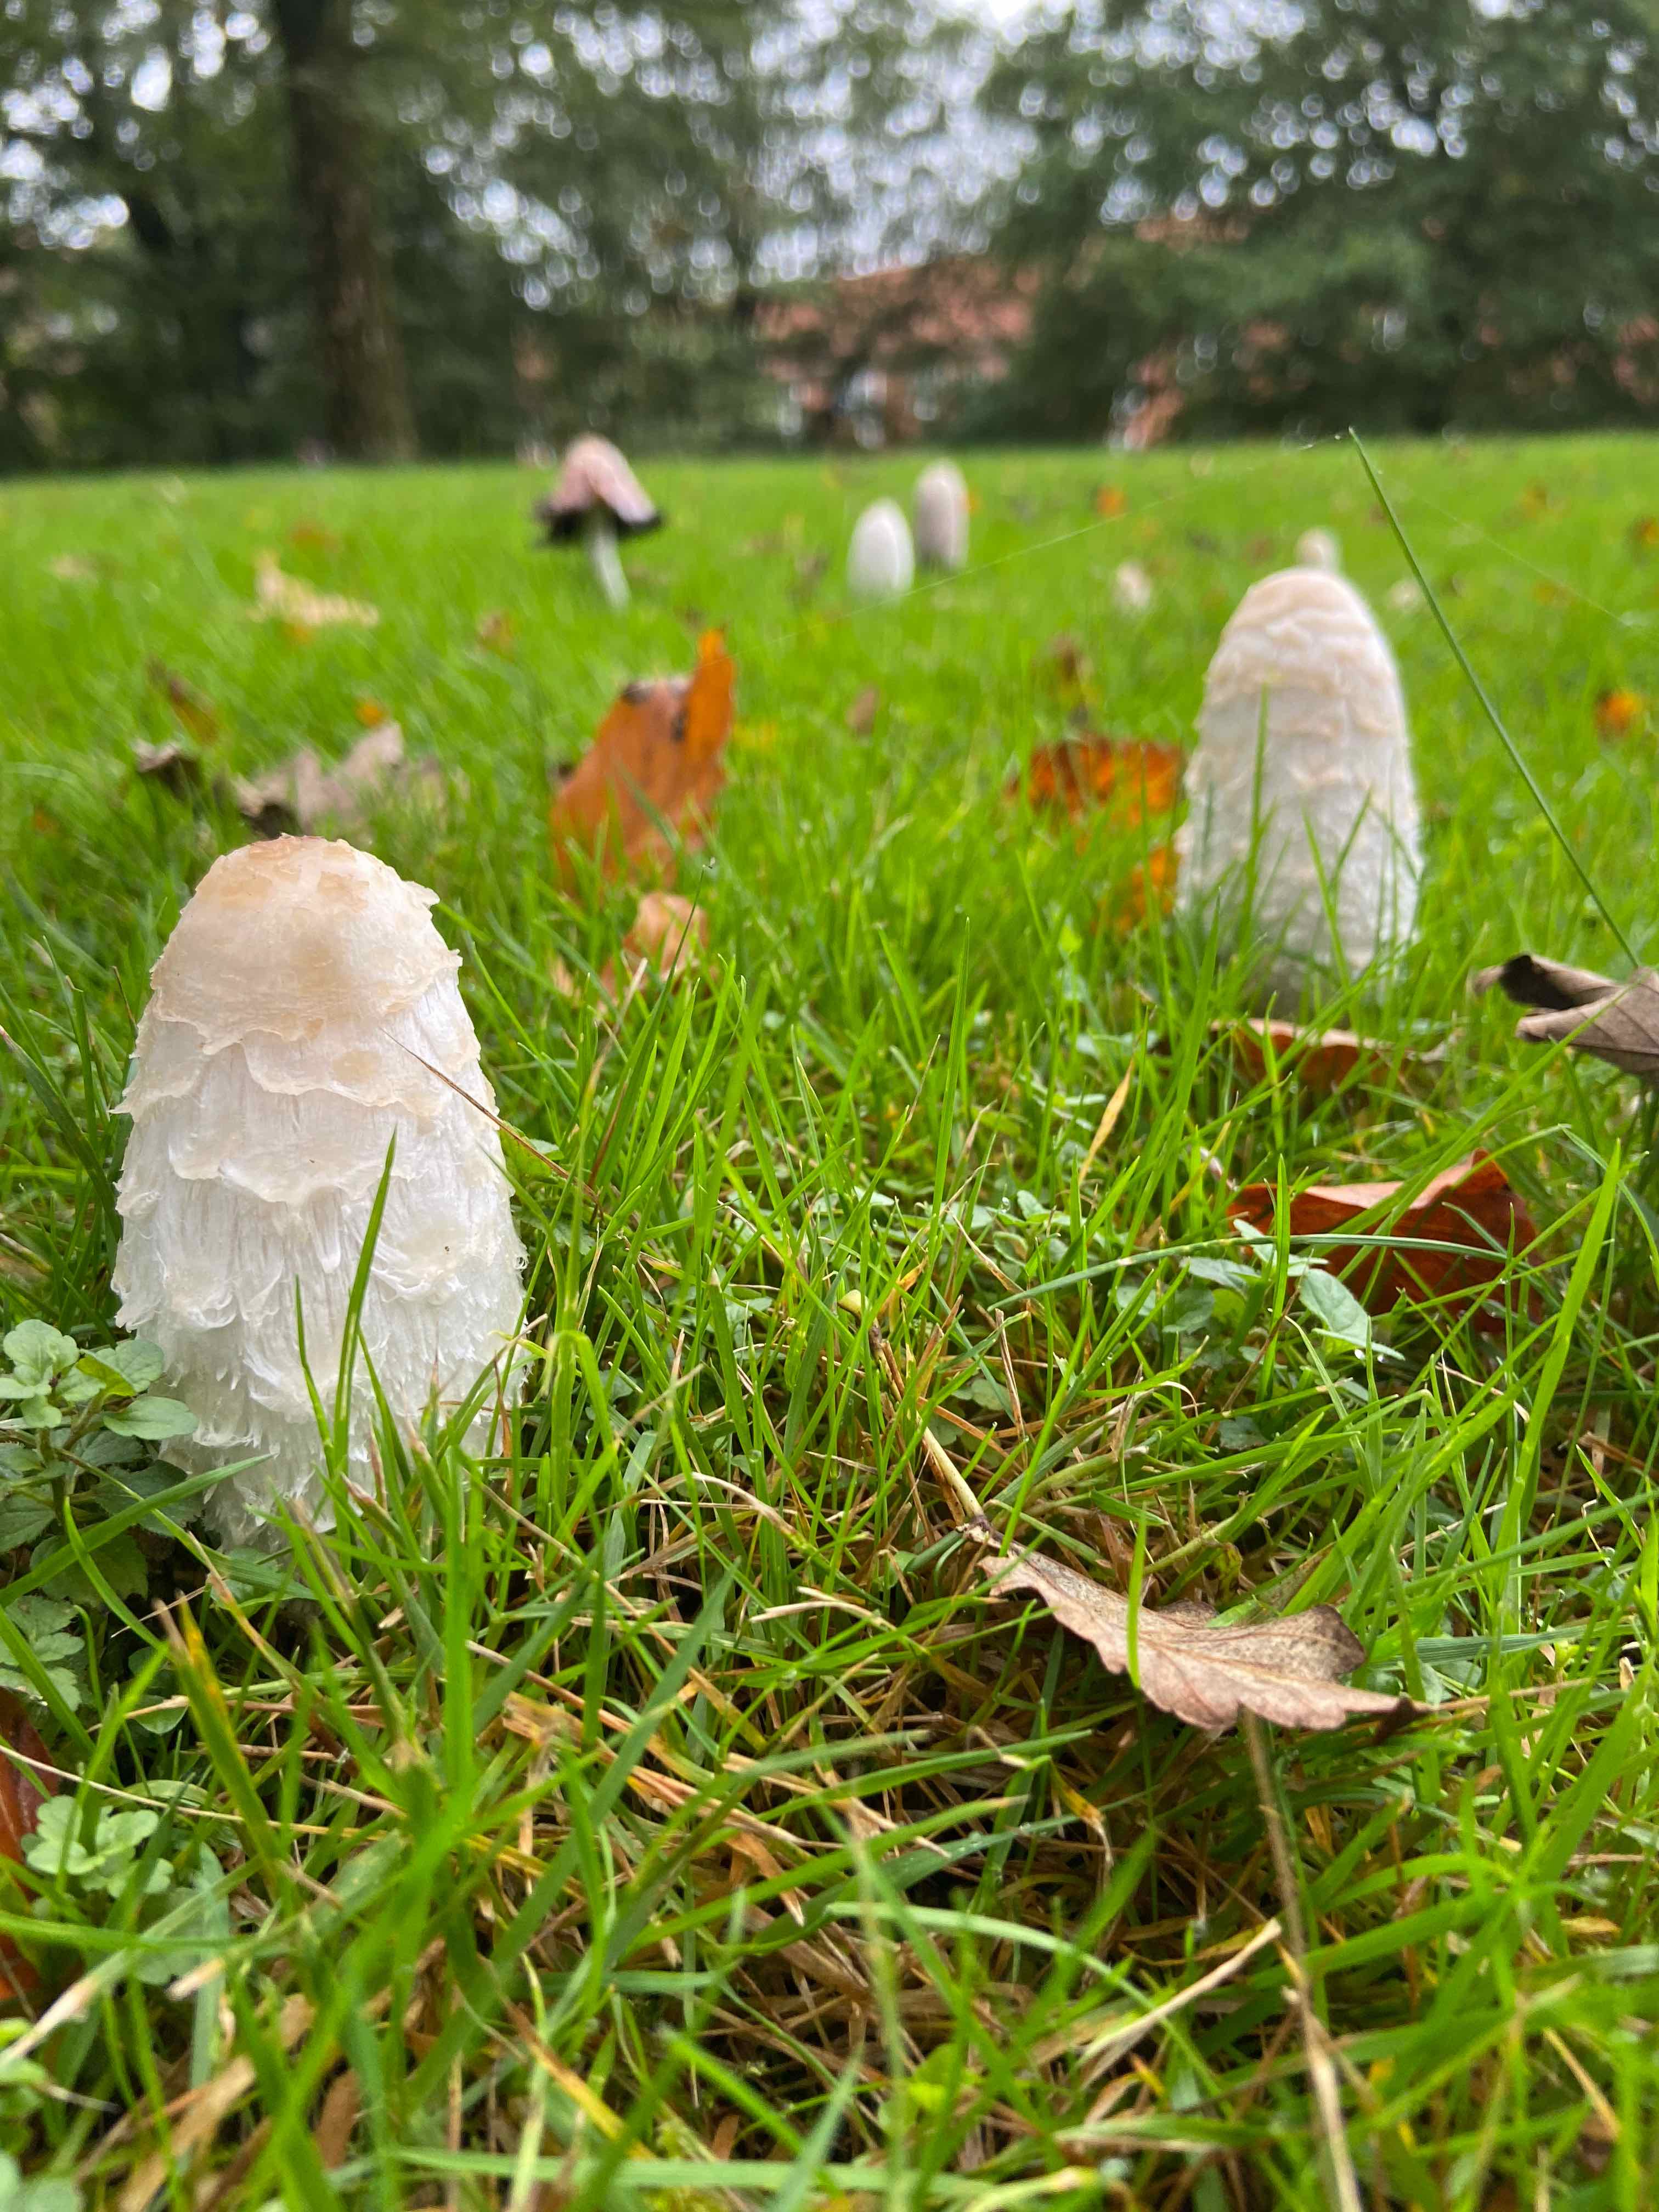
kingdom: Fungi
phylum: Basidiomycota
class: Agaricomycetes
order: Agaricales
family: Agaricaceae
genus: Coprinus
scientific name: Coprinus comatus
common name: stor parykhat
